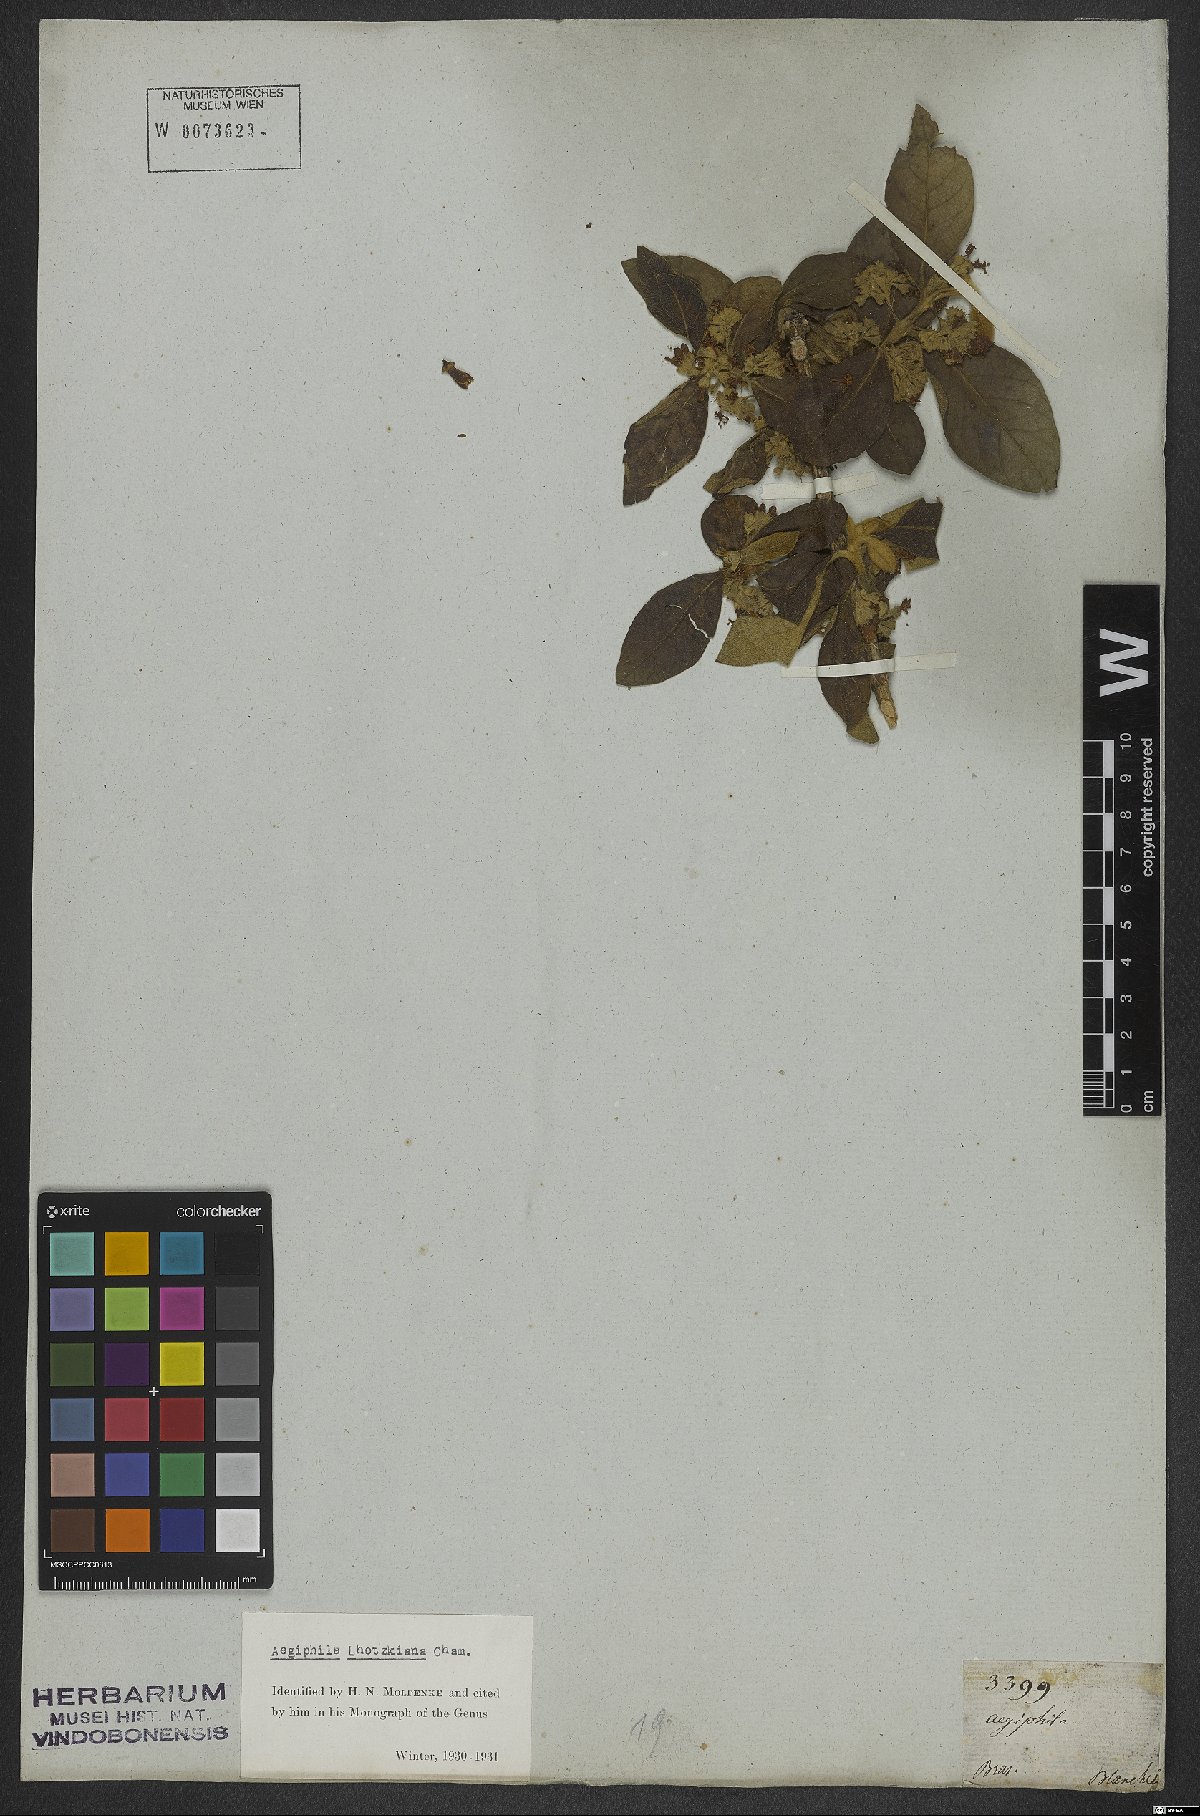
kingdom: Plantae
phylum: Tracheophyta
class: Magnoliopsida
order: Lamiales
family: Lamiaceae
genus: Aegiphila
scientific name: Aegiphila lhotskiana
